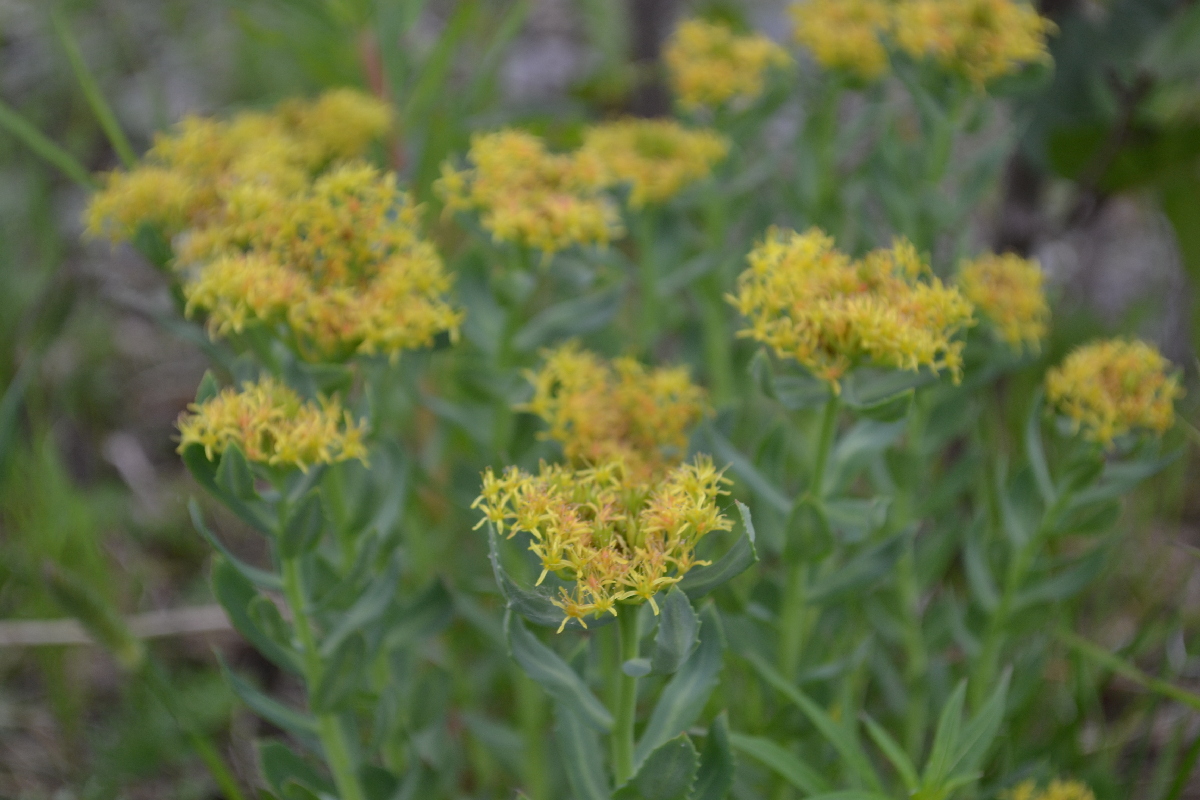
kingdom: Plantae
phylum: Tracheophyta
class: Magnoliopsida
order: Saxifragales
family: Crassulaceae
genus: Rhodiola
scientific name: Rhodiola rosea
